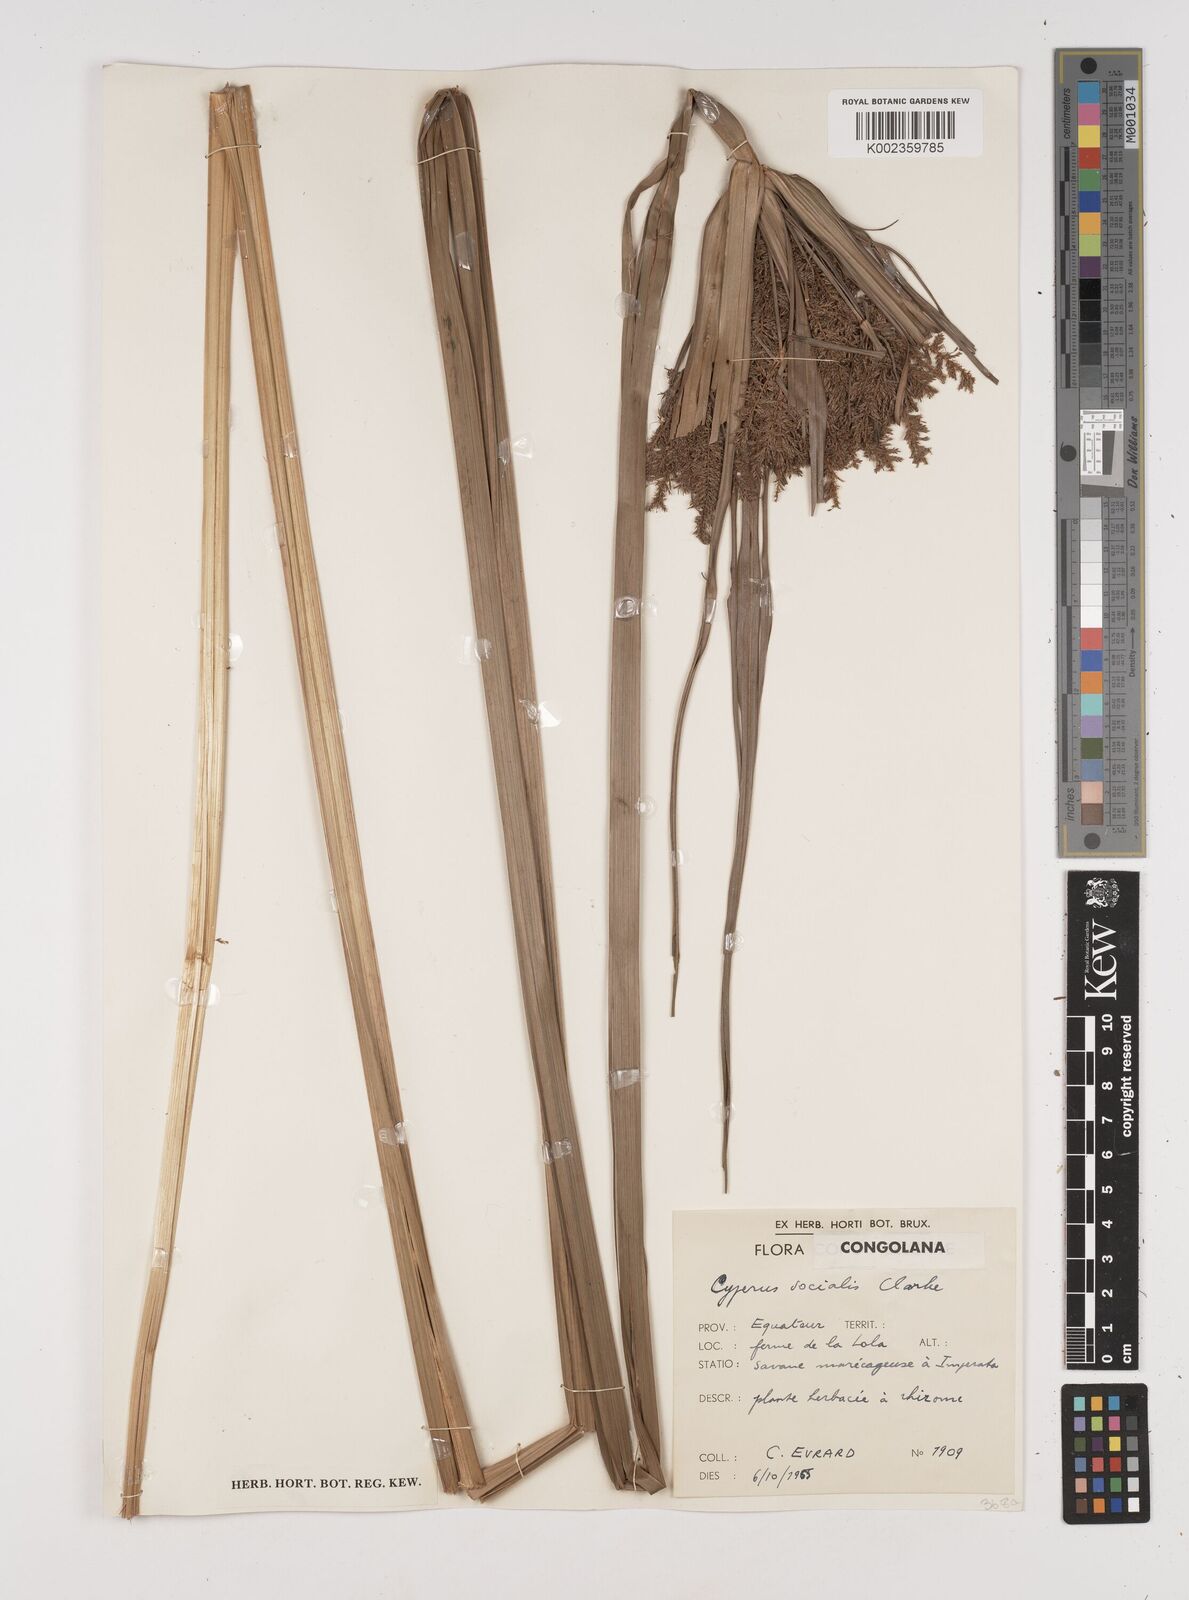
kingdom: Plantae
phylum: Tracheophyta
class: Liliopsida
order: Poales
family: Cyperaceae
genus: Cyperus
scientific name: Cyperus pseudopilosus
